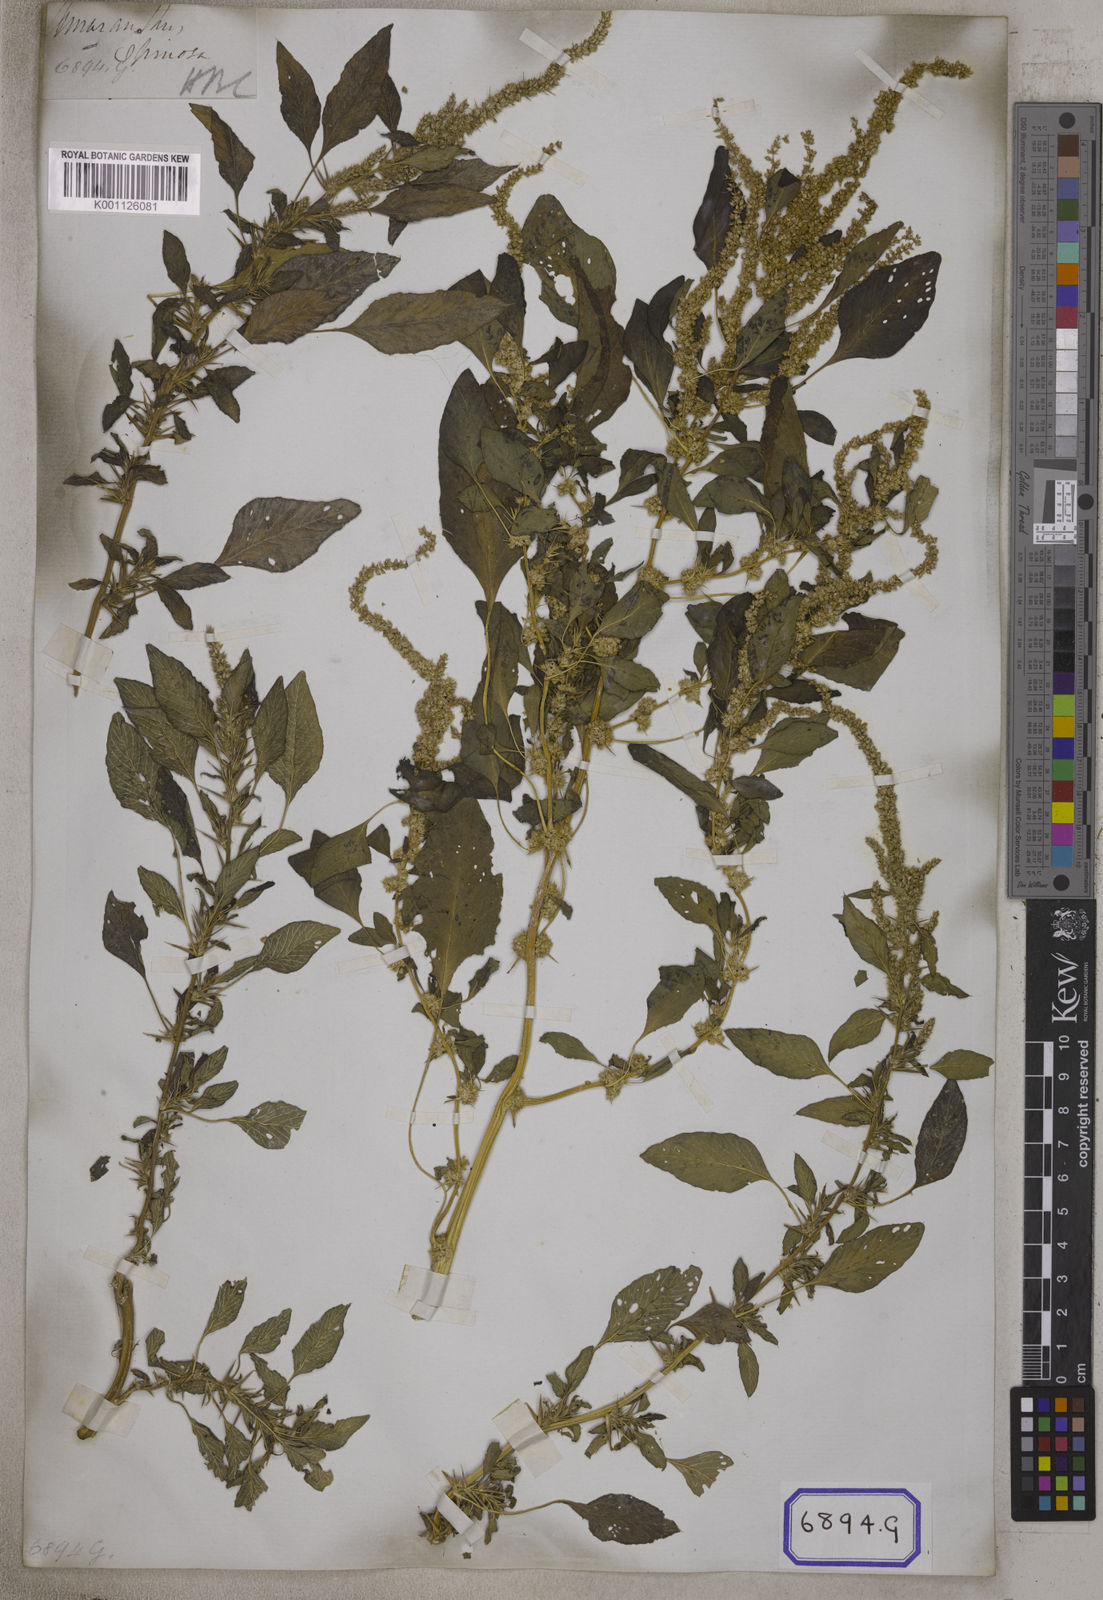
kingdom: Plantae
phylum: Tracheophyta
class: Magnoliopsida
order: Caryophyllales
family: Amaranthaceae
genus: Amaranthus
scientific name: Amaranthus spinosus
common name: Spiny amaranth
